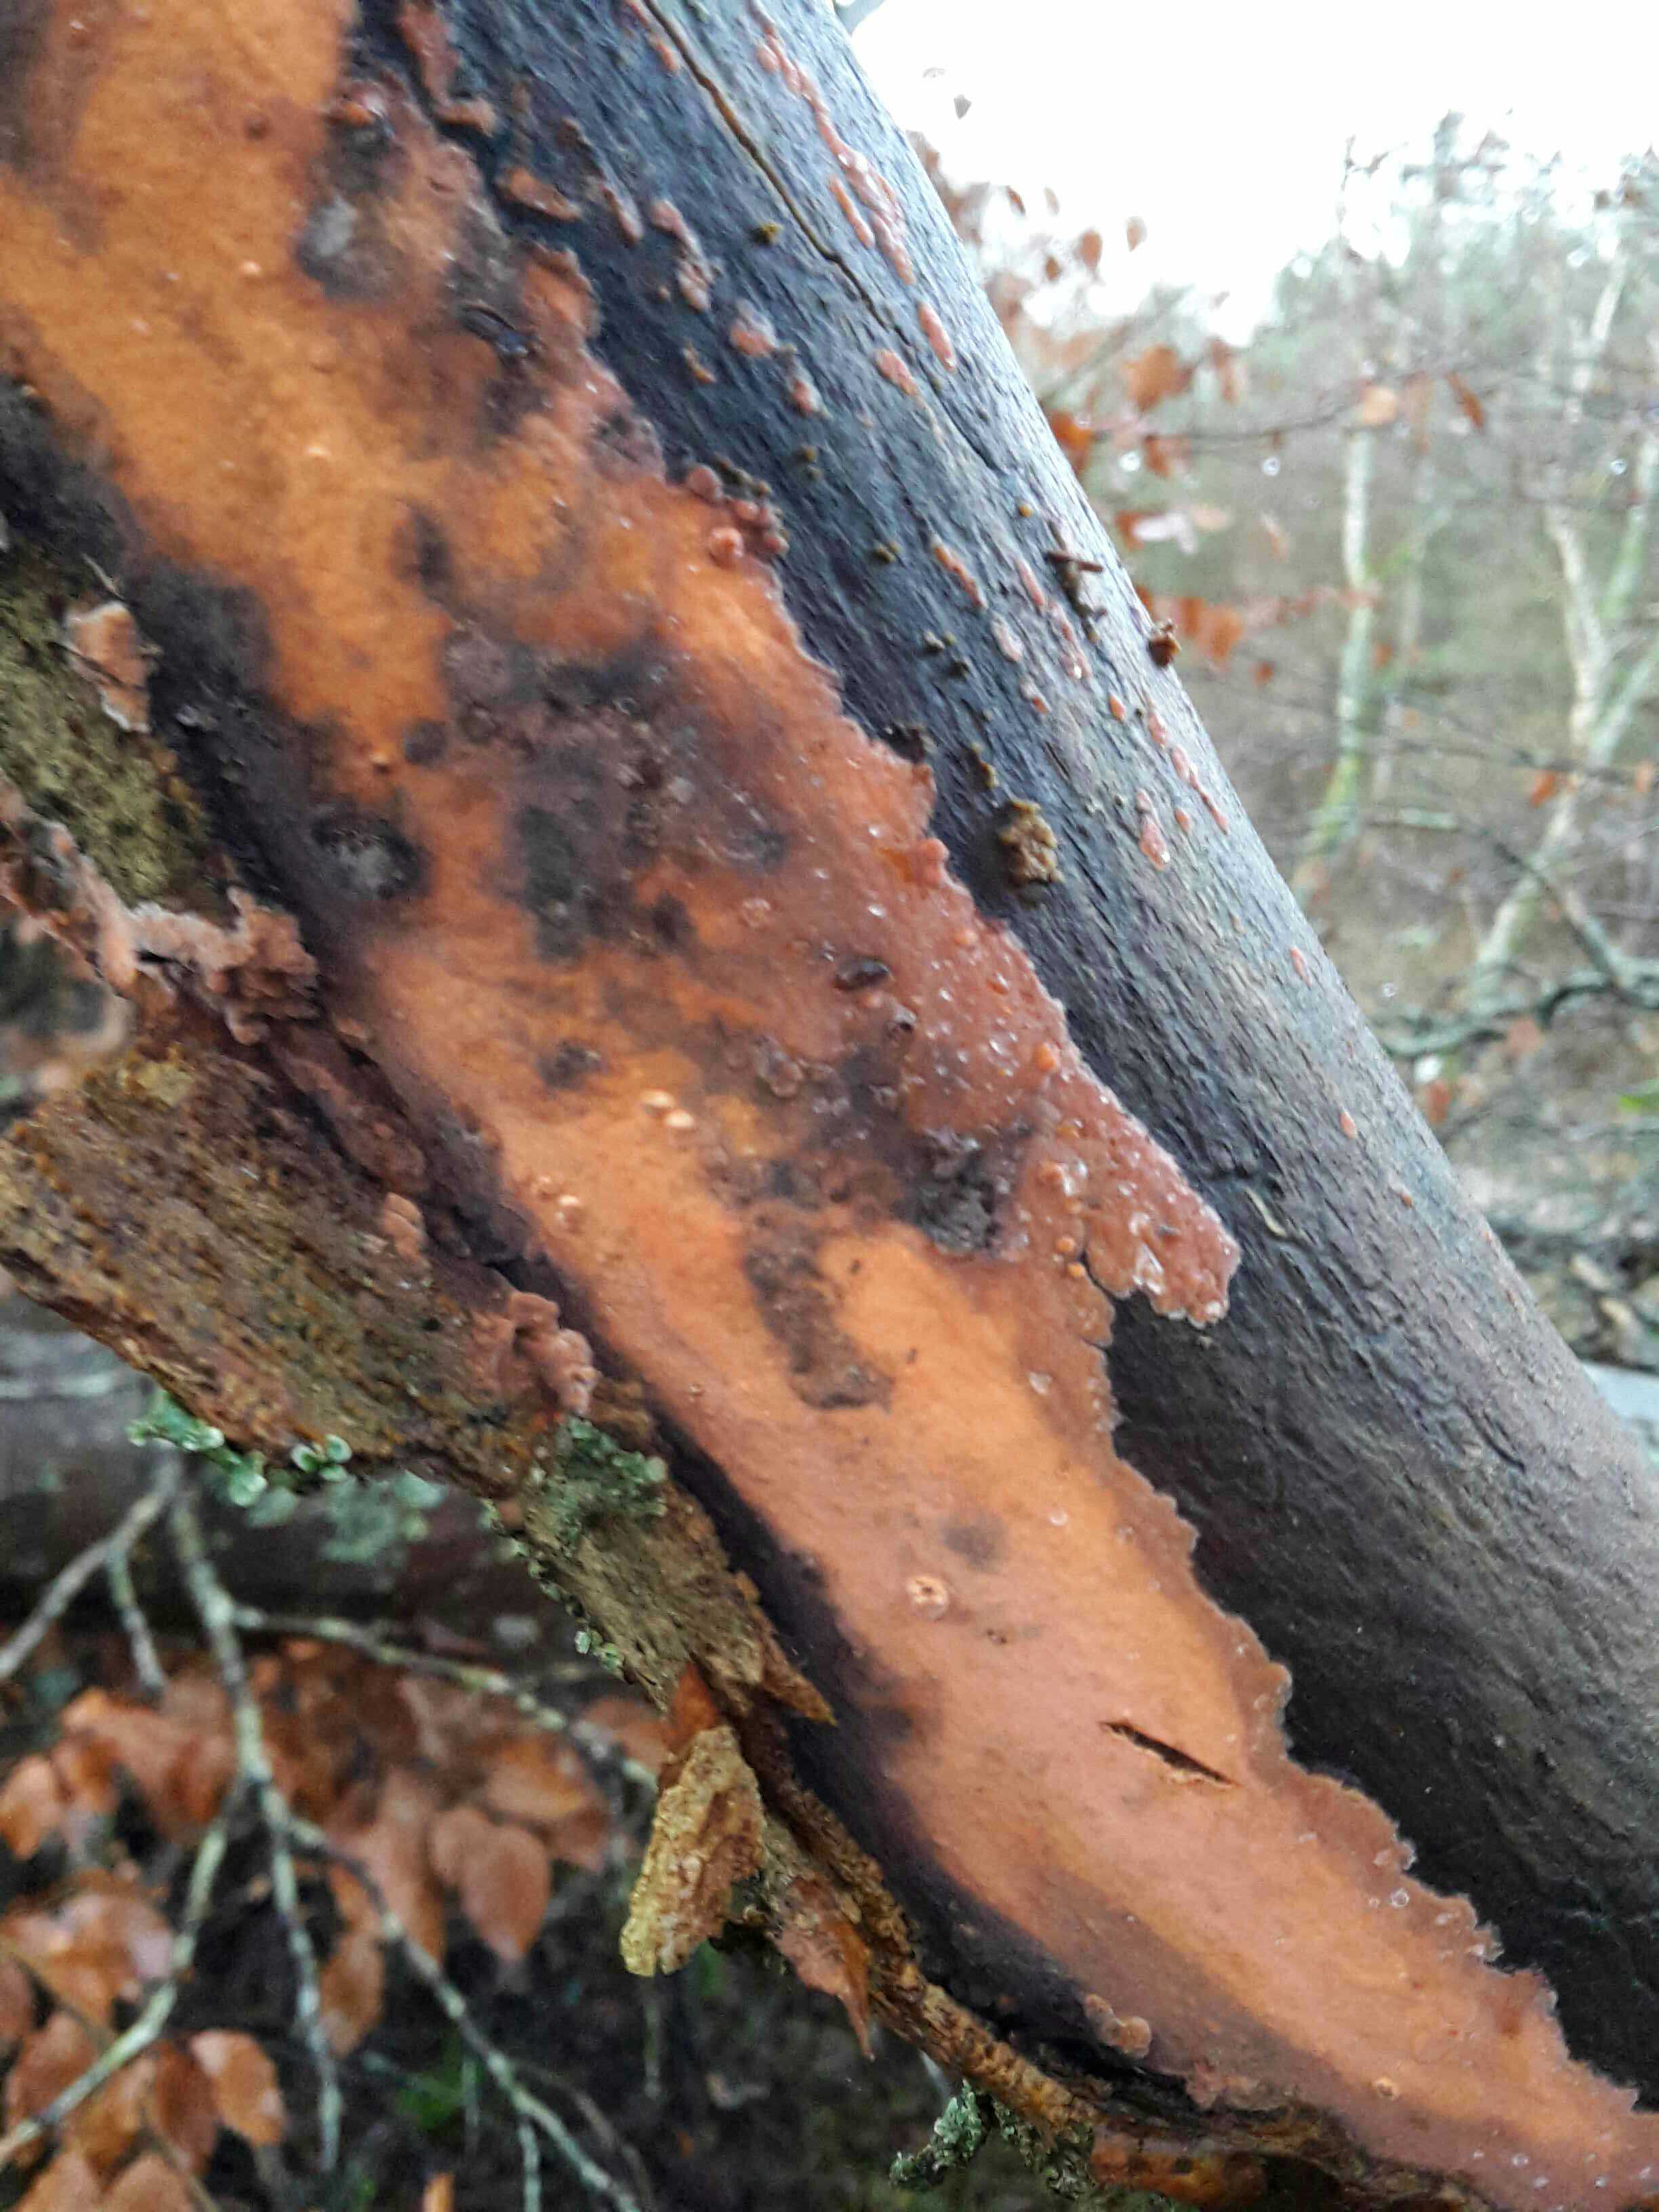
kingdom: Fungi
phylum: Basidiomycota
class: Agaricomycetes
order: Russulales
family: Peniophoraceae
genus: Peniophora
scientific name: Peniophora incarnata
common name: laksefarvet voksskind
